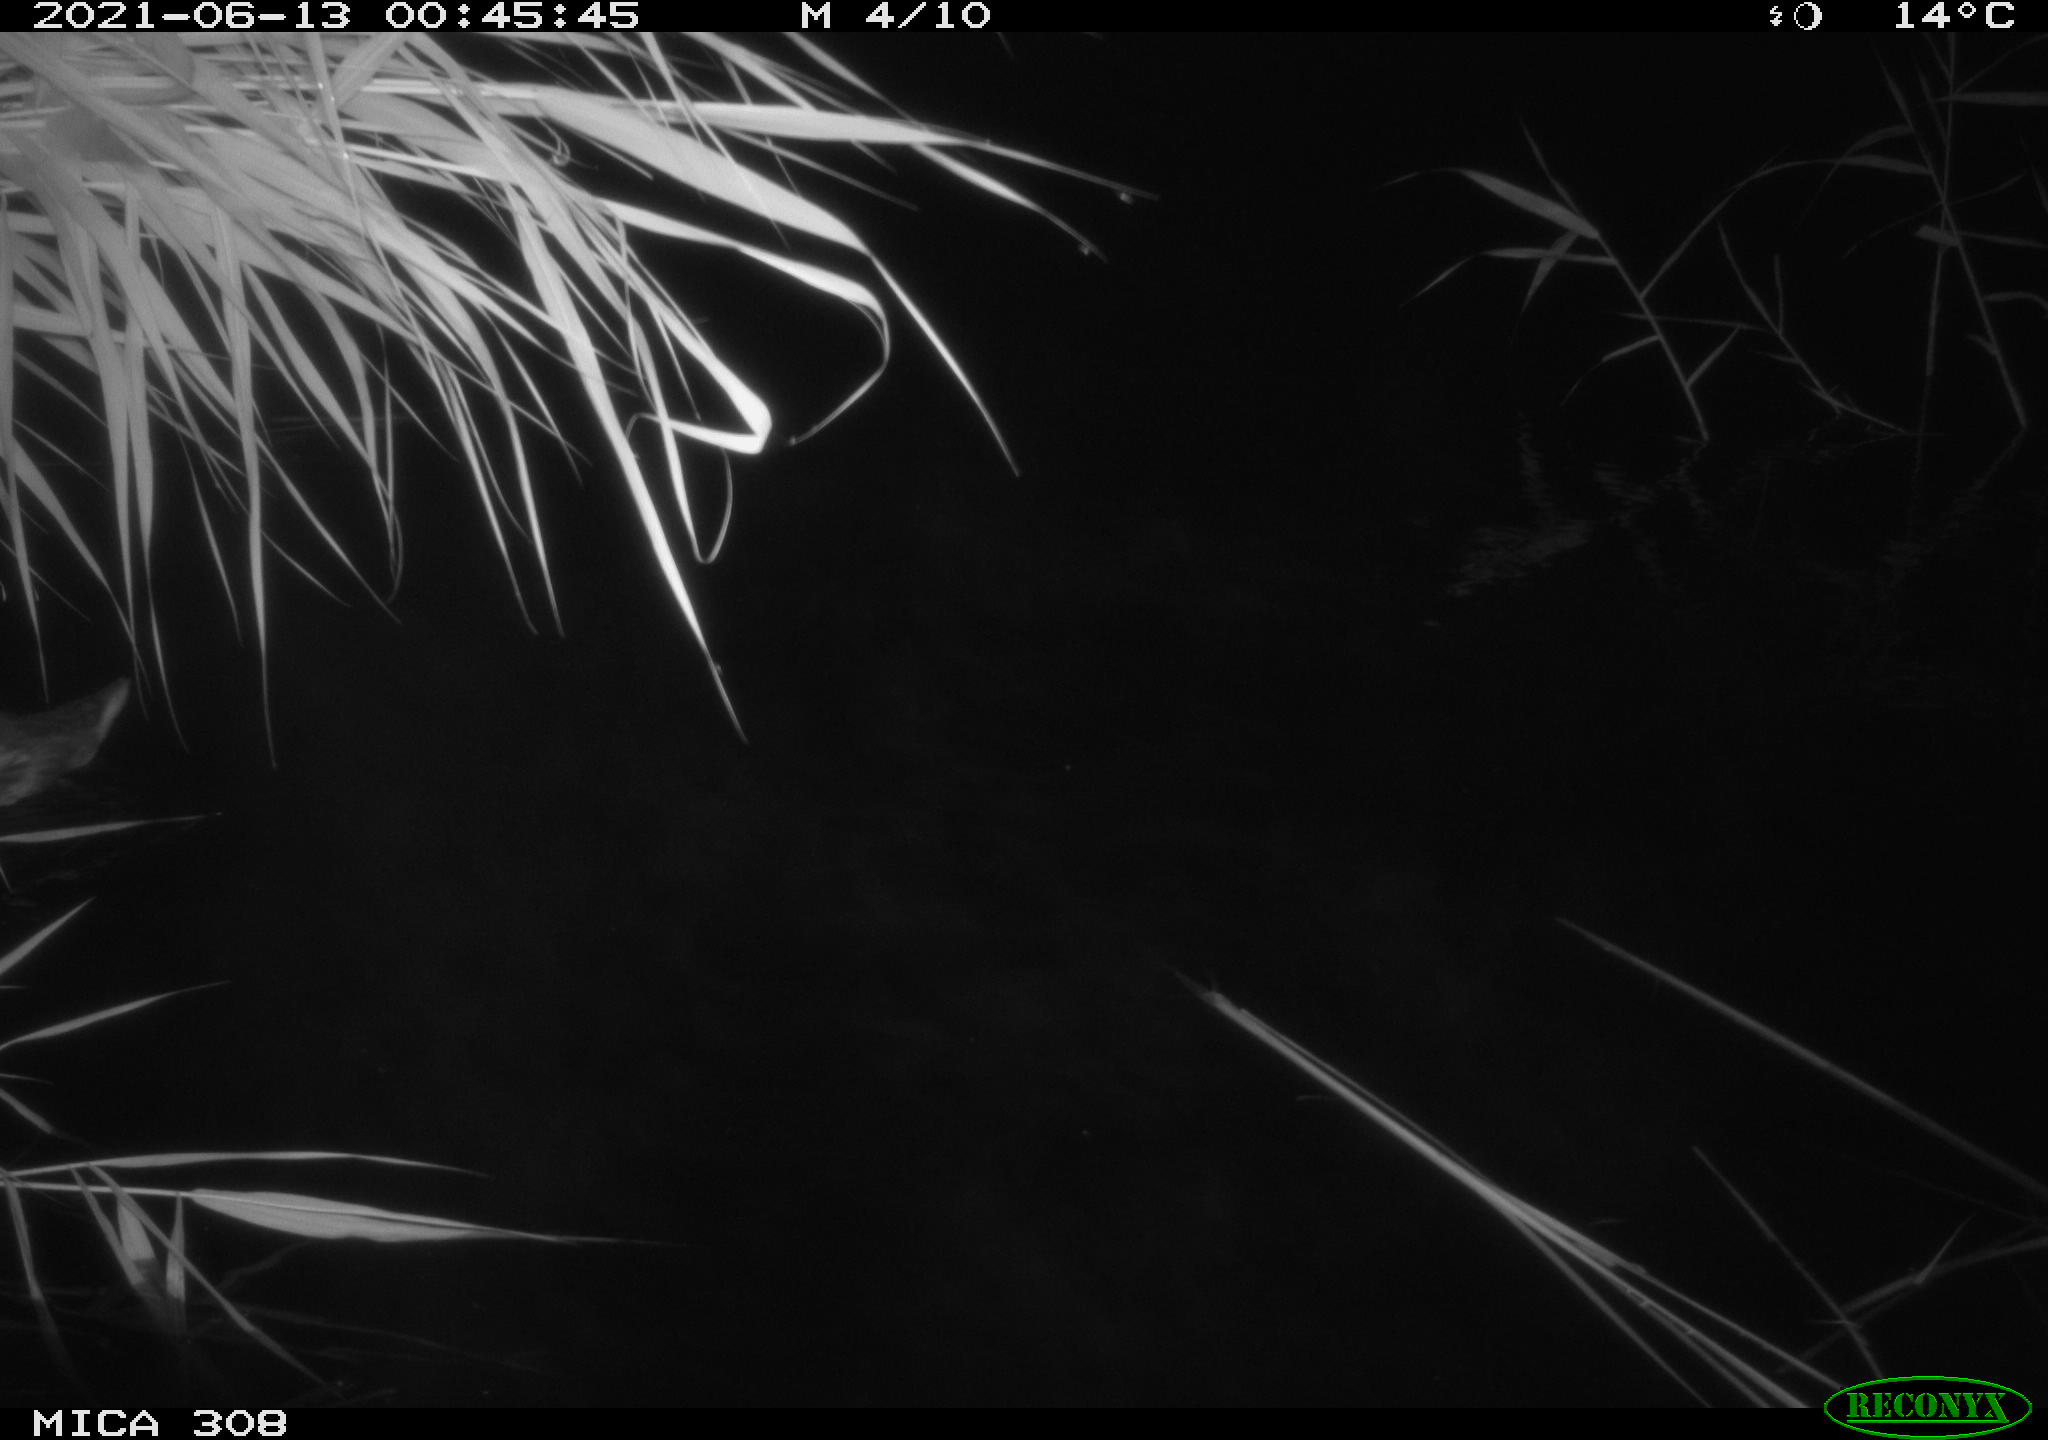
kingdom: Animalia
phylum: Chordata
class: Aves
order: Anseriformes
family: Anatidae
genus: Anas
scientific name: Anas platyrhynchos
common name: Mallard
